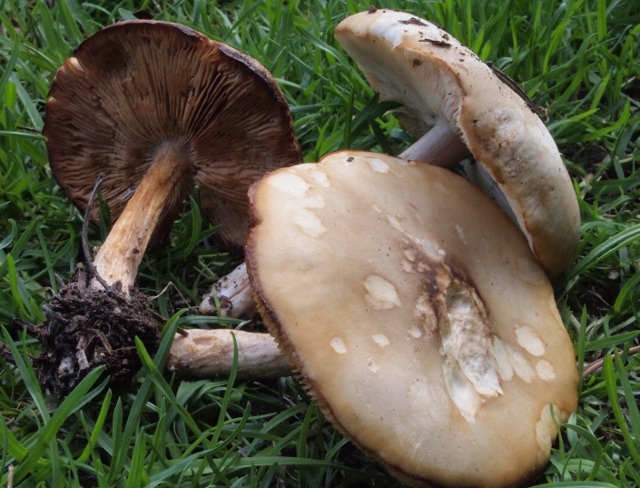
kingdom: Fungi
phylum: Basidiomycota
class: Agaricomycetes
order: Agaricales
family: Tricholomataceae
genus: Melanoleuca
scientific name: Melanoleuca cognata
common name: gyldengrå munkehat
